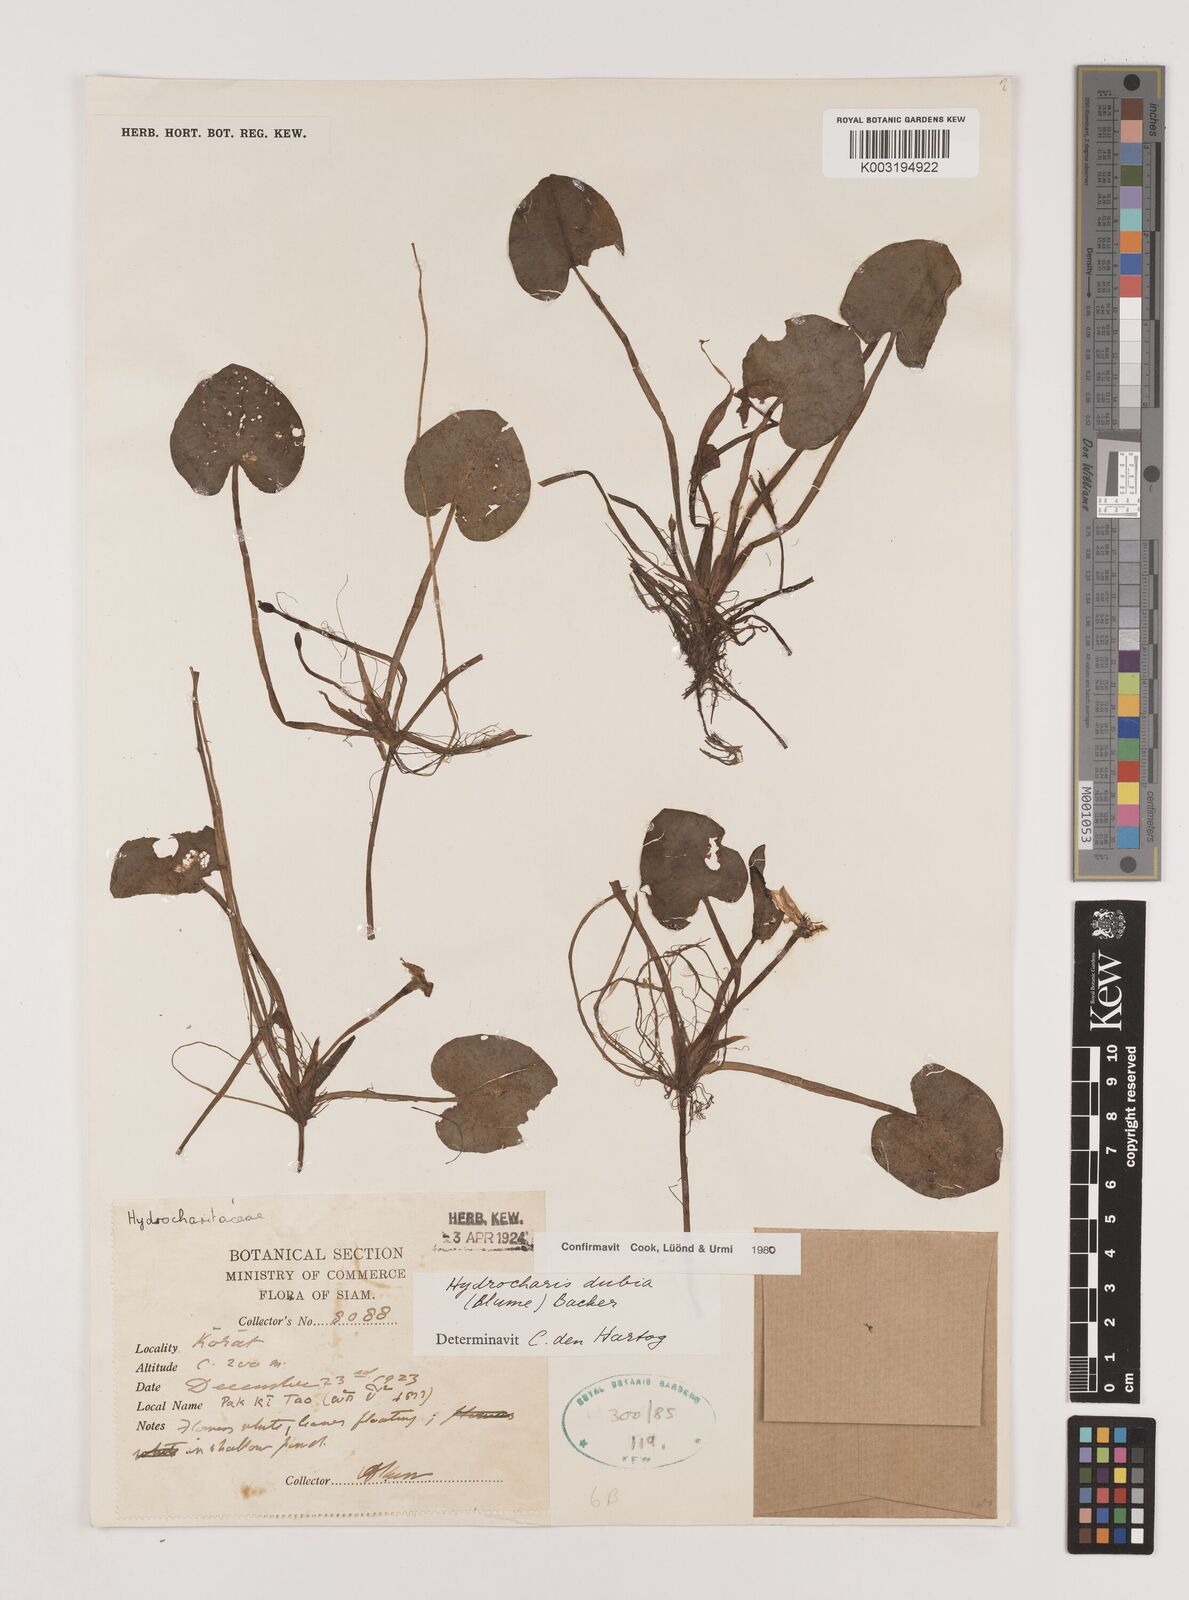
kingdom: Plantae
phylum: Tracheophyta
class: Liliopsida
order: Alismatales
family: Hydrocharitaceae
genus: Hydrocharis
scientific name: Hydrocharis dubia
